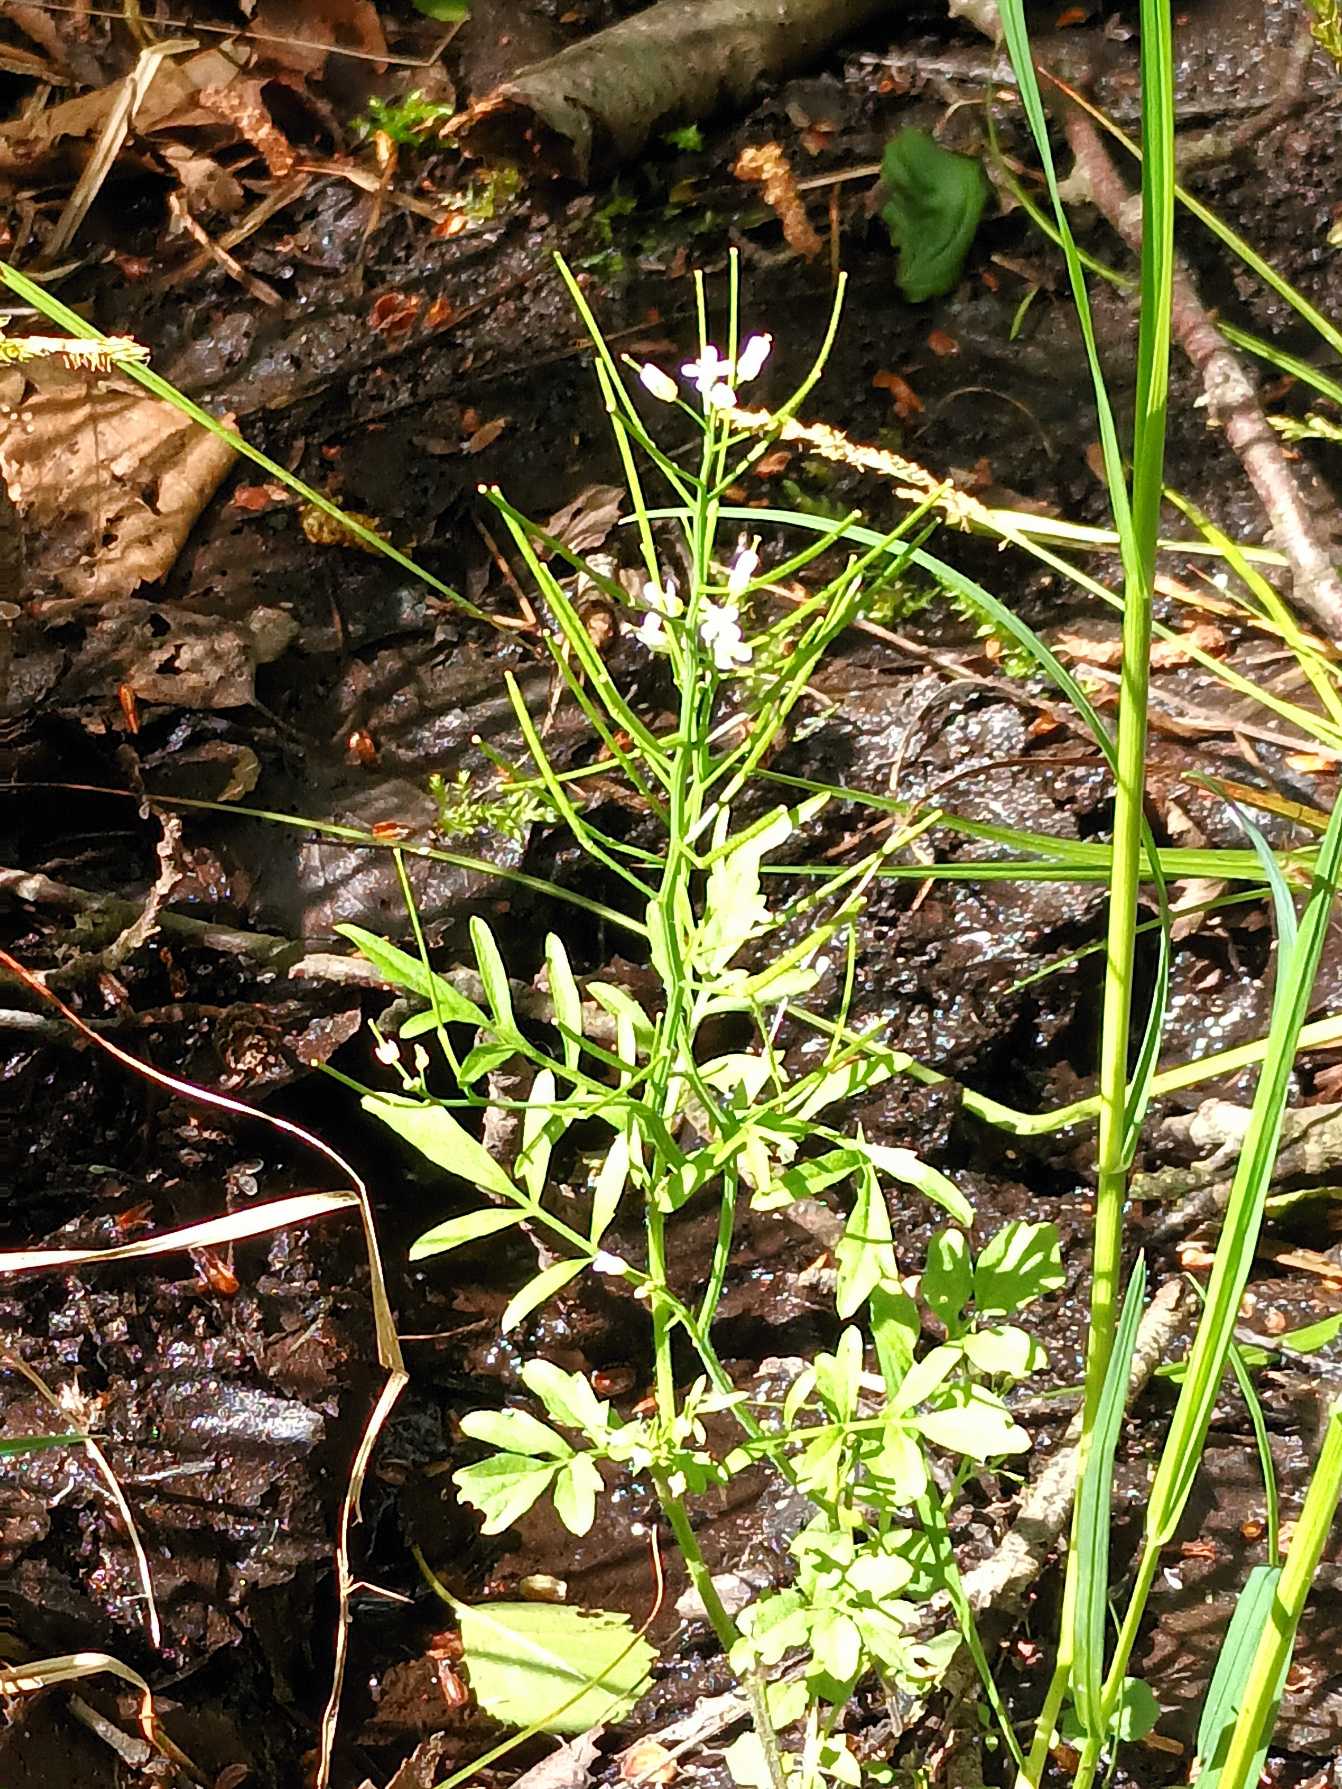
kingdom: Plantae
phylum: Tracheophyta
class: Magnoliopsida
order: Brassicales
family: Brassicaceae
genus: Cardamine
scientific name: Cardamine flexuosa
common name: Skov-springklap
